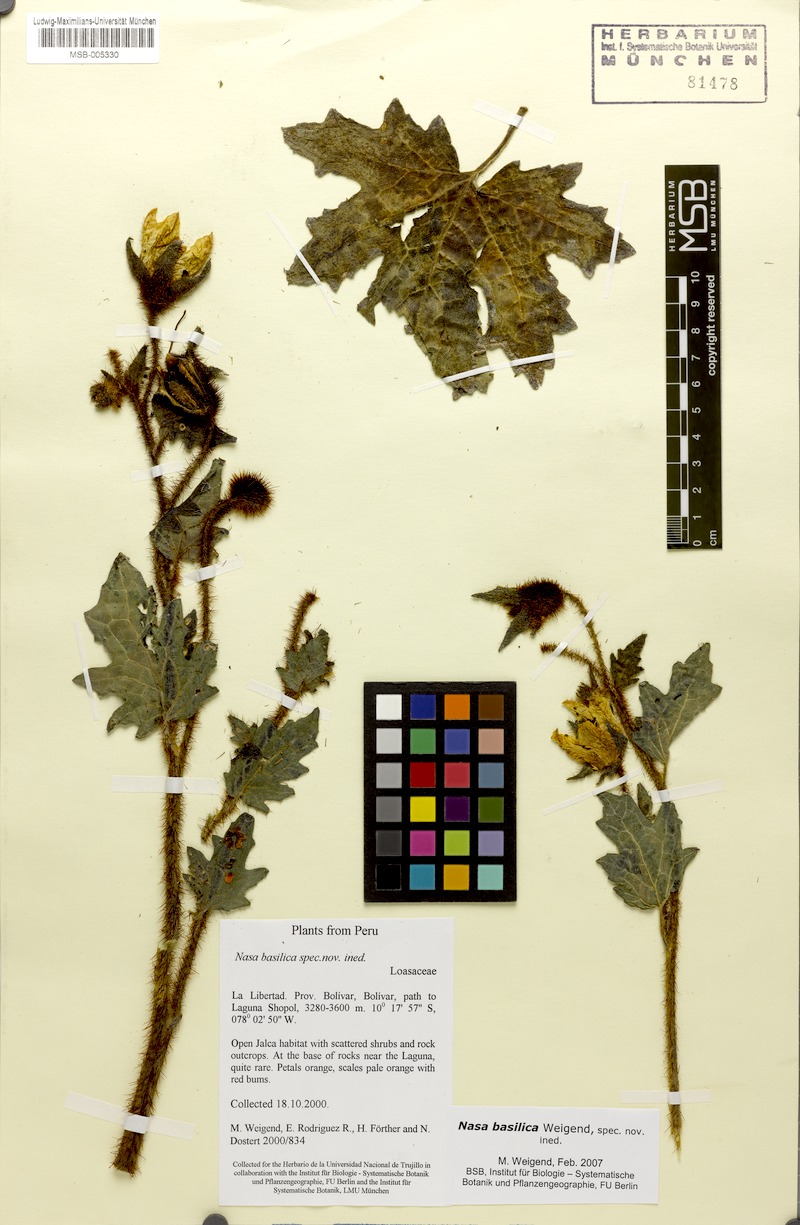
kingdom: Plantae
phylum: Tracheophyta
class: Magnoliopsida
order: Cornales
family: Loasaceae
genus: Nasa
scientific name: Nasa basilica
